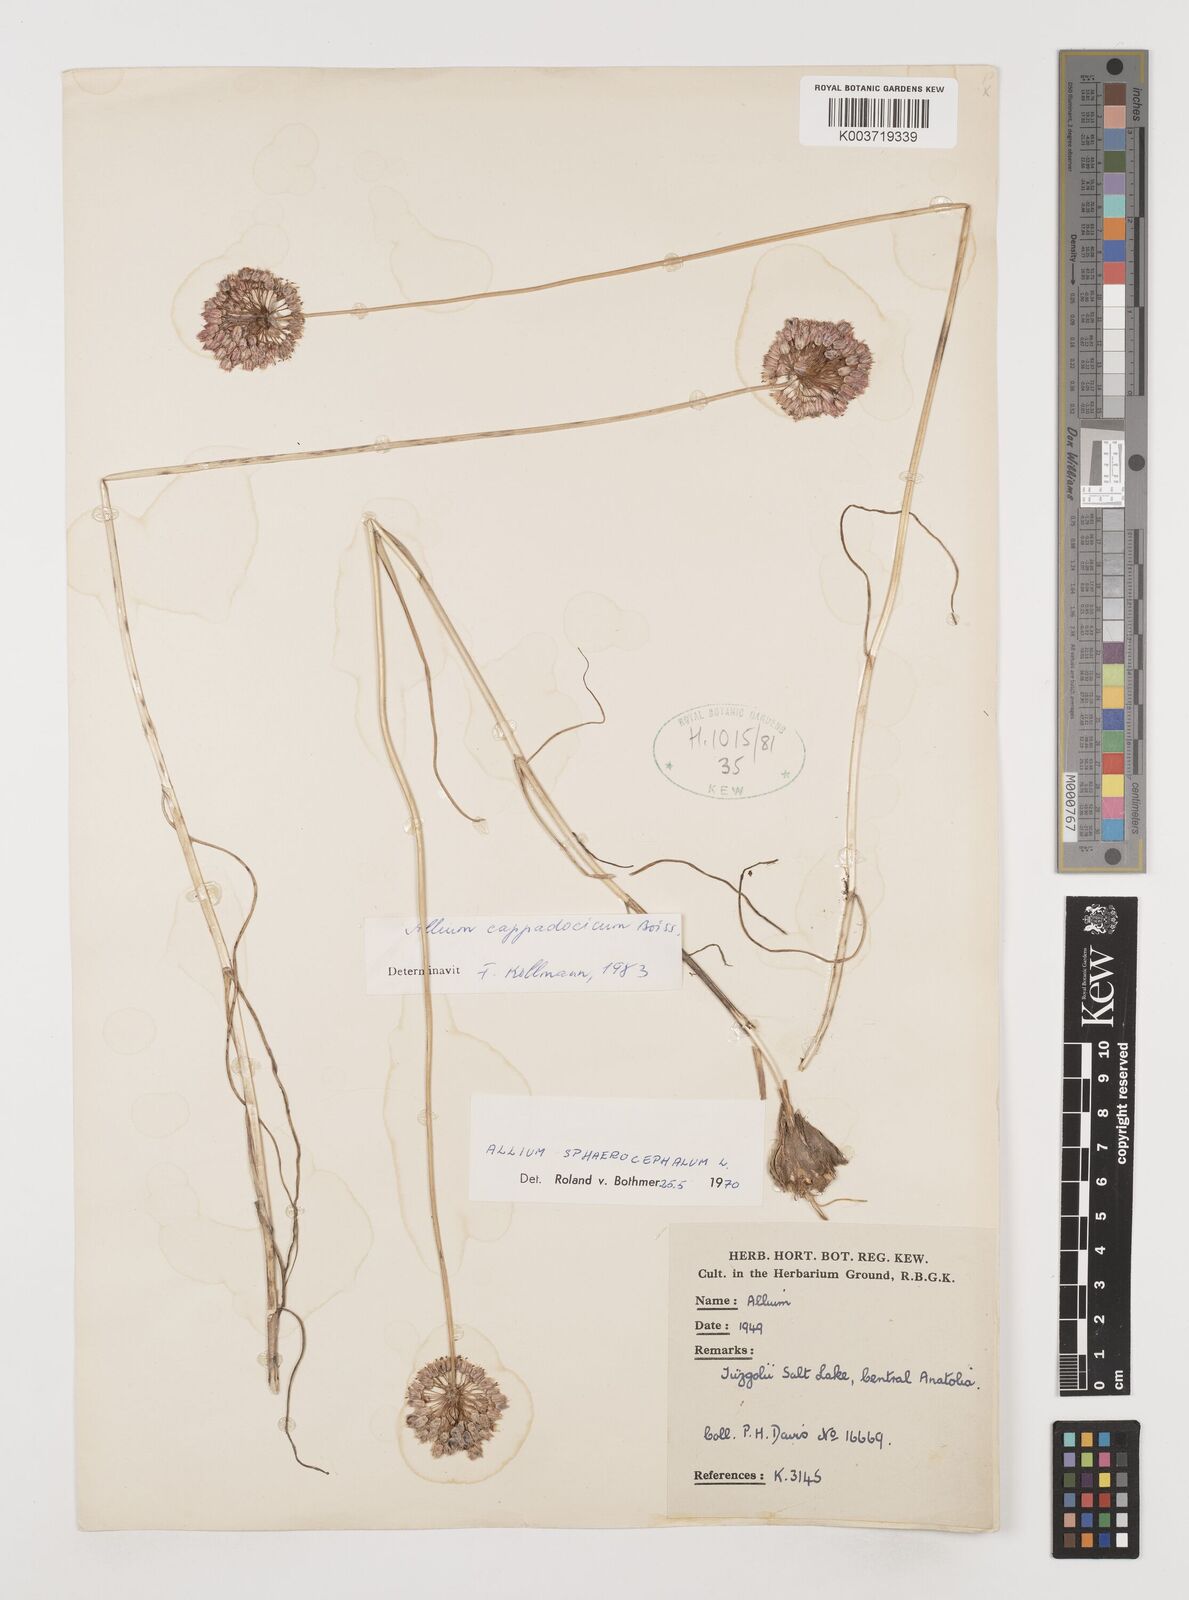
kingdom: Plantae
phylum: Tracheophyta
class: Liliopsida
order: Asparagales
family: Amaryllidaceae
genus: Allium
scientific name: Allium cappadocicum
